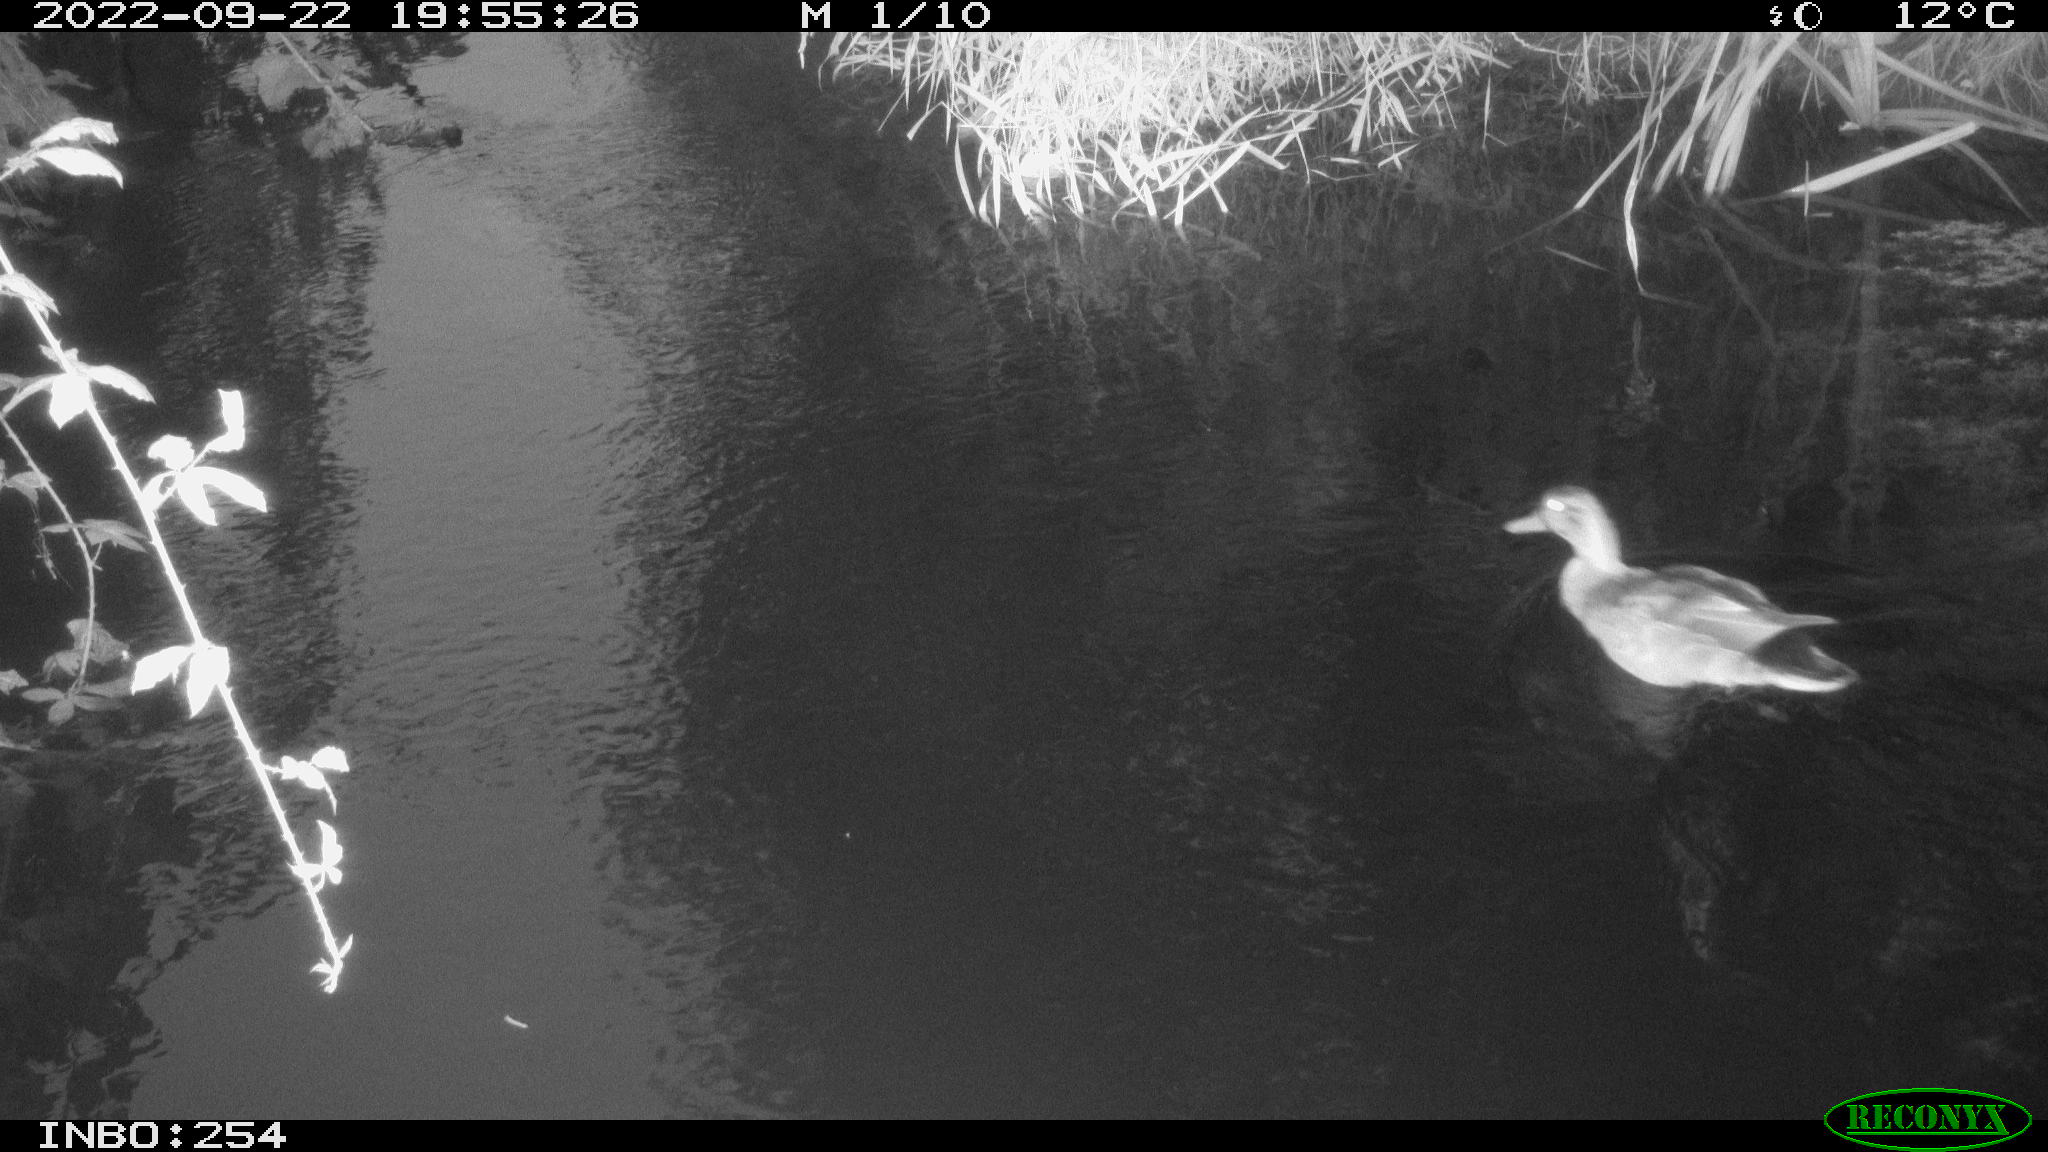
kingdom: Animalia
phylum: Chordata
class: Aves
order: Anseriformes
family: Anatidae
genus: Anas
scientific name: Anas
